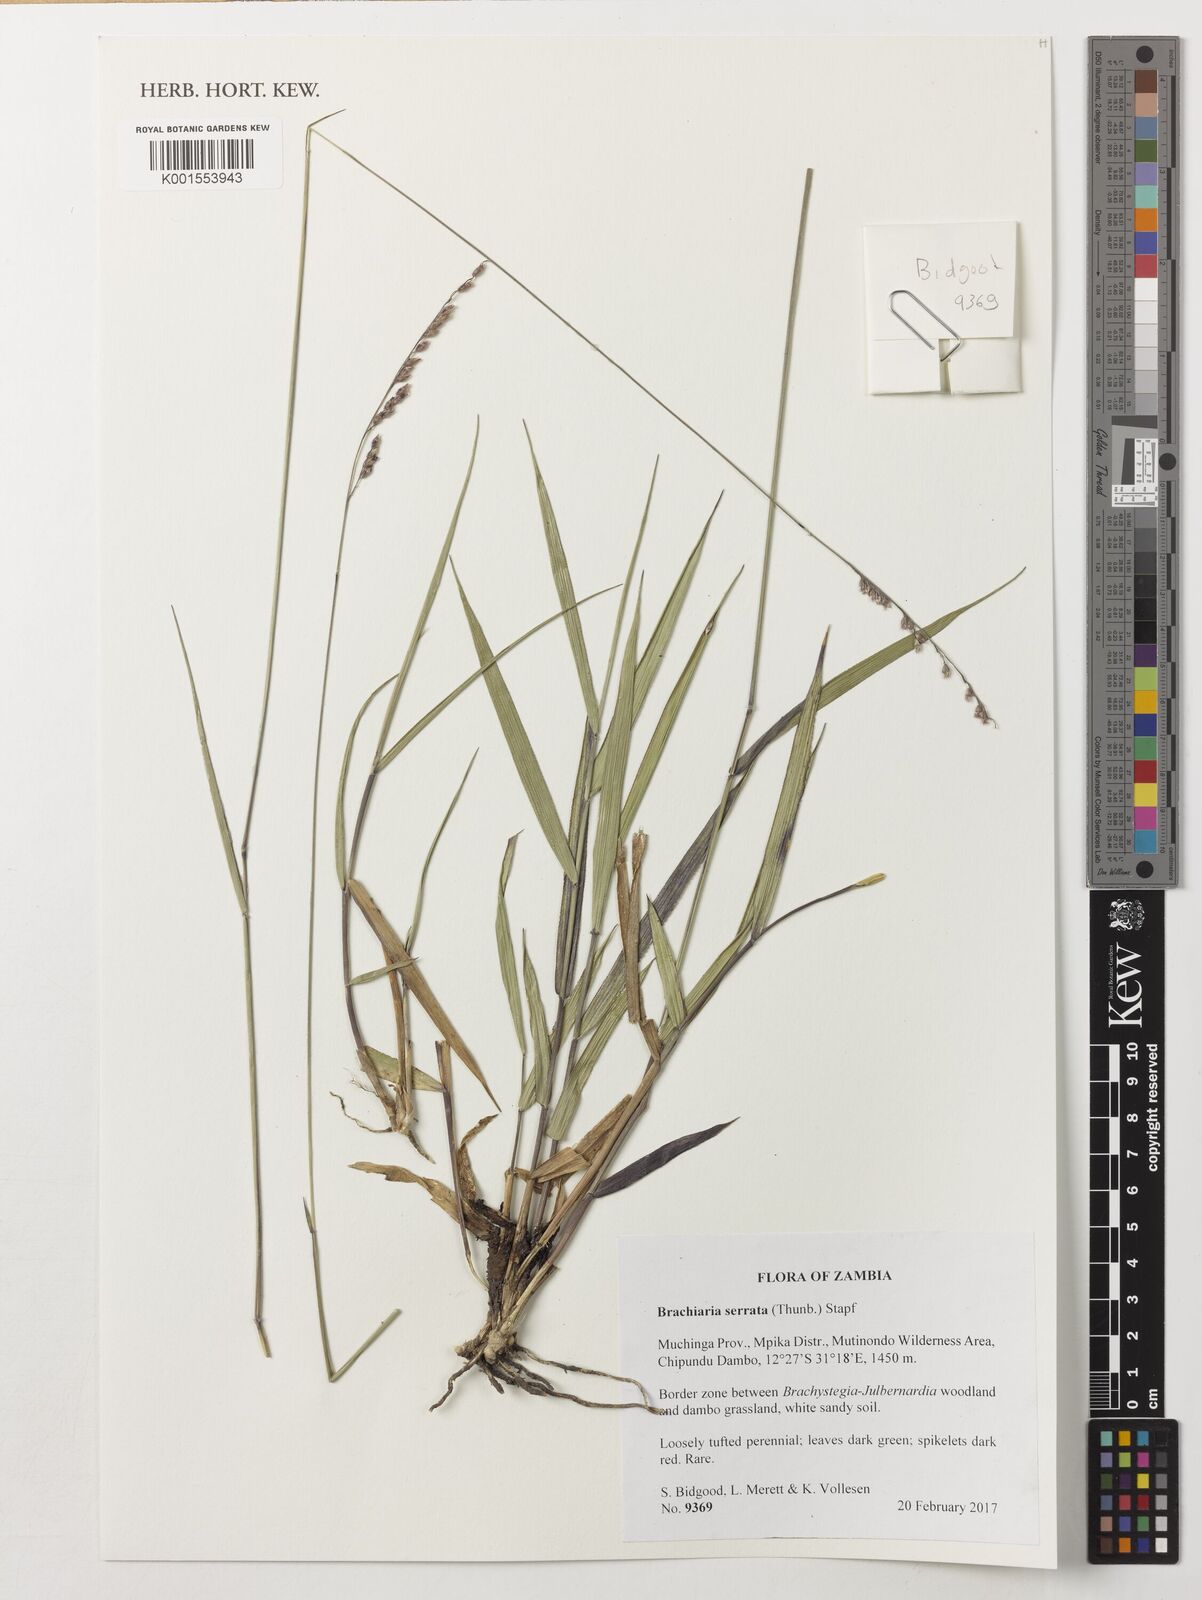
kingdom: Plantae
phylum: Tracheophyta
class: Liliopsida
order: Poales
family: Poaceae
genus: Urochloa
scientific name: Urochloa serrata
